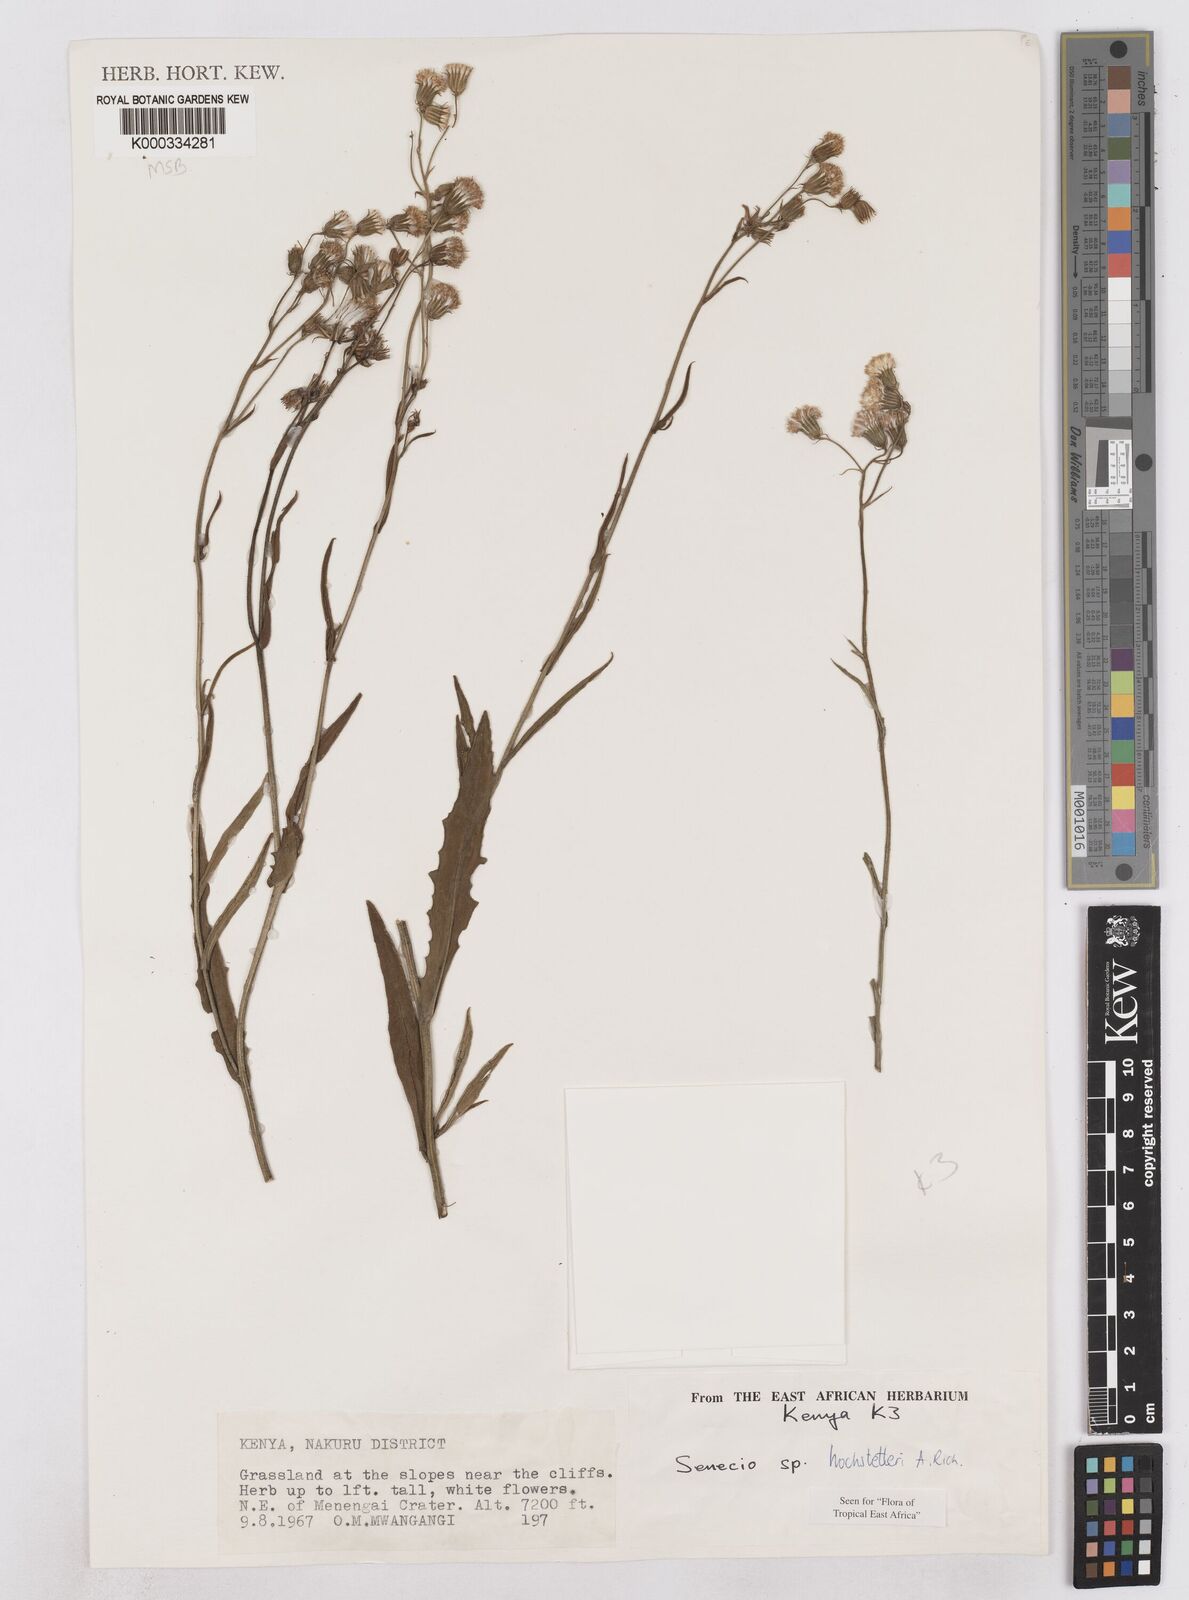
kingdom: Plantae
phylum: Tracheophyta
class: Magnoliopsida
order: Asterales
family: Asteraceae
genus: Senecio
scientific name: Senecio hochstetteri
